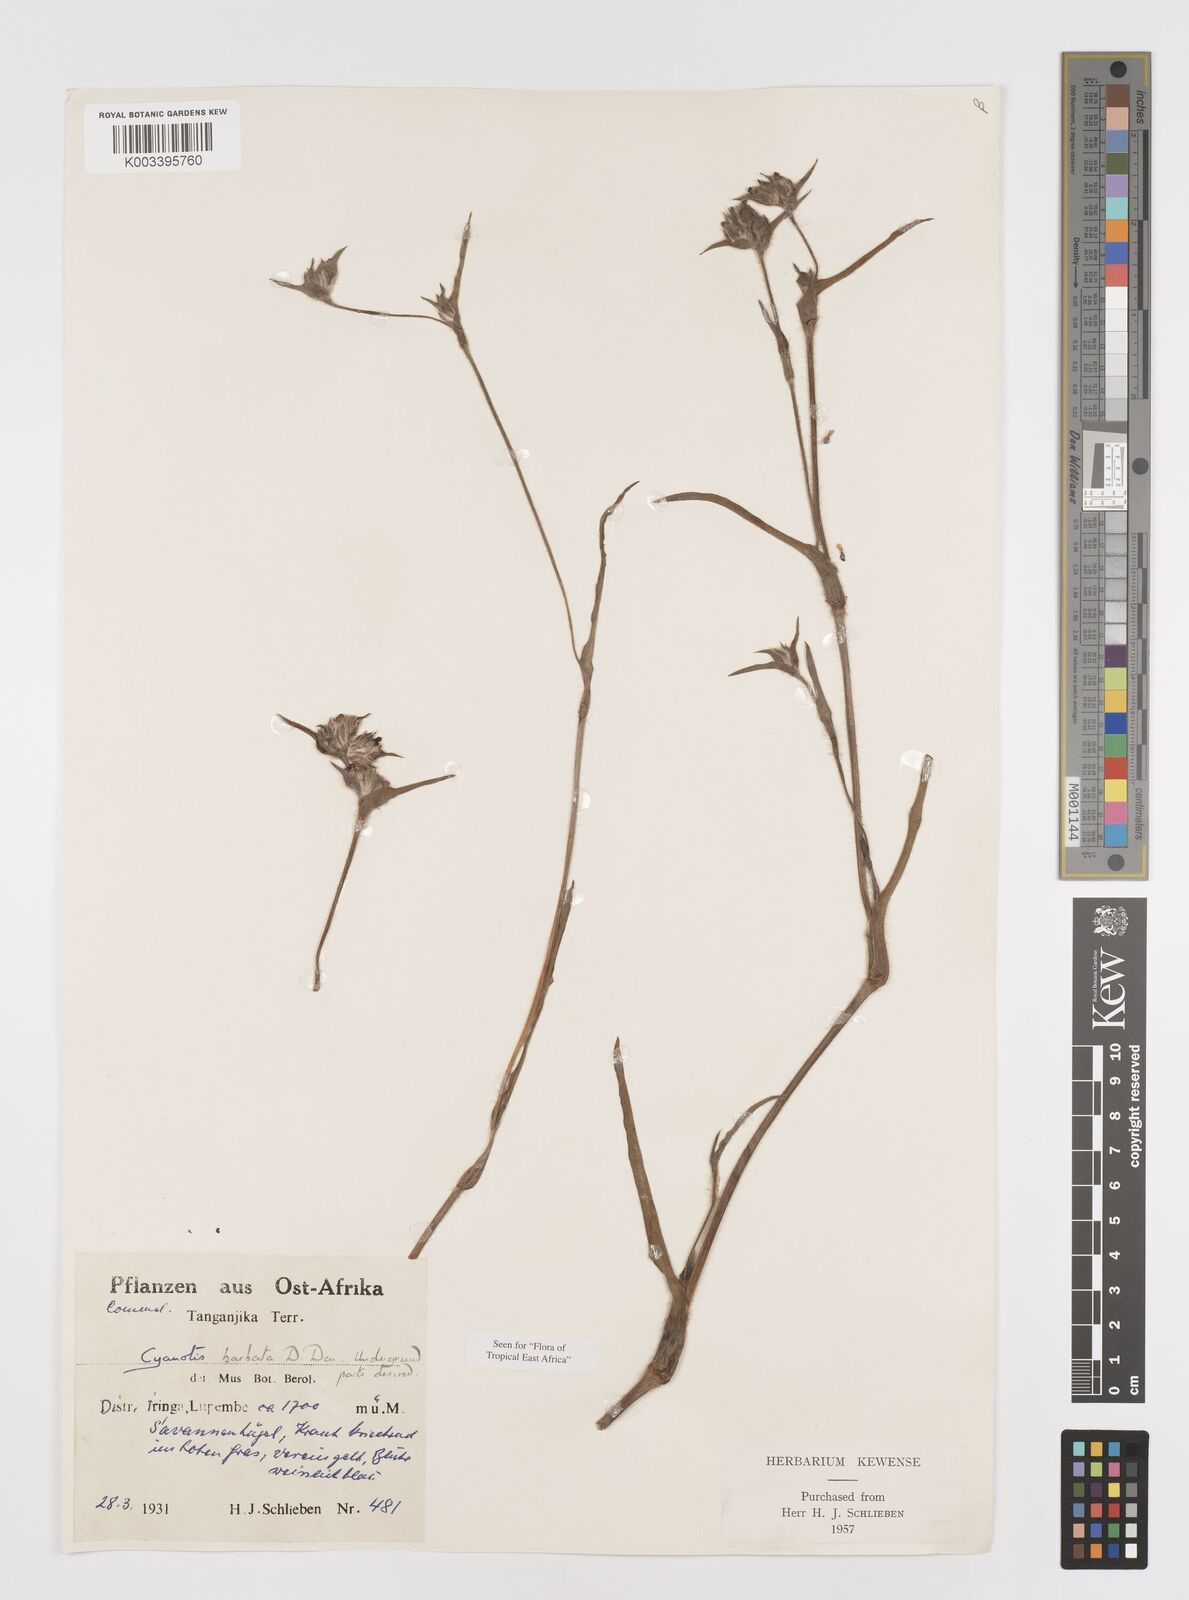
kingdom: Plantae
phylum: Tracheophyta
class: Liliopsida
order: Commelinales
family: Commelinaceae
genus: Cyanotis
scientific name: Cyanotis vaga
